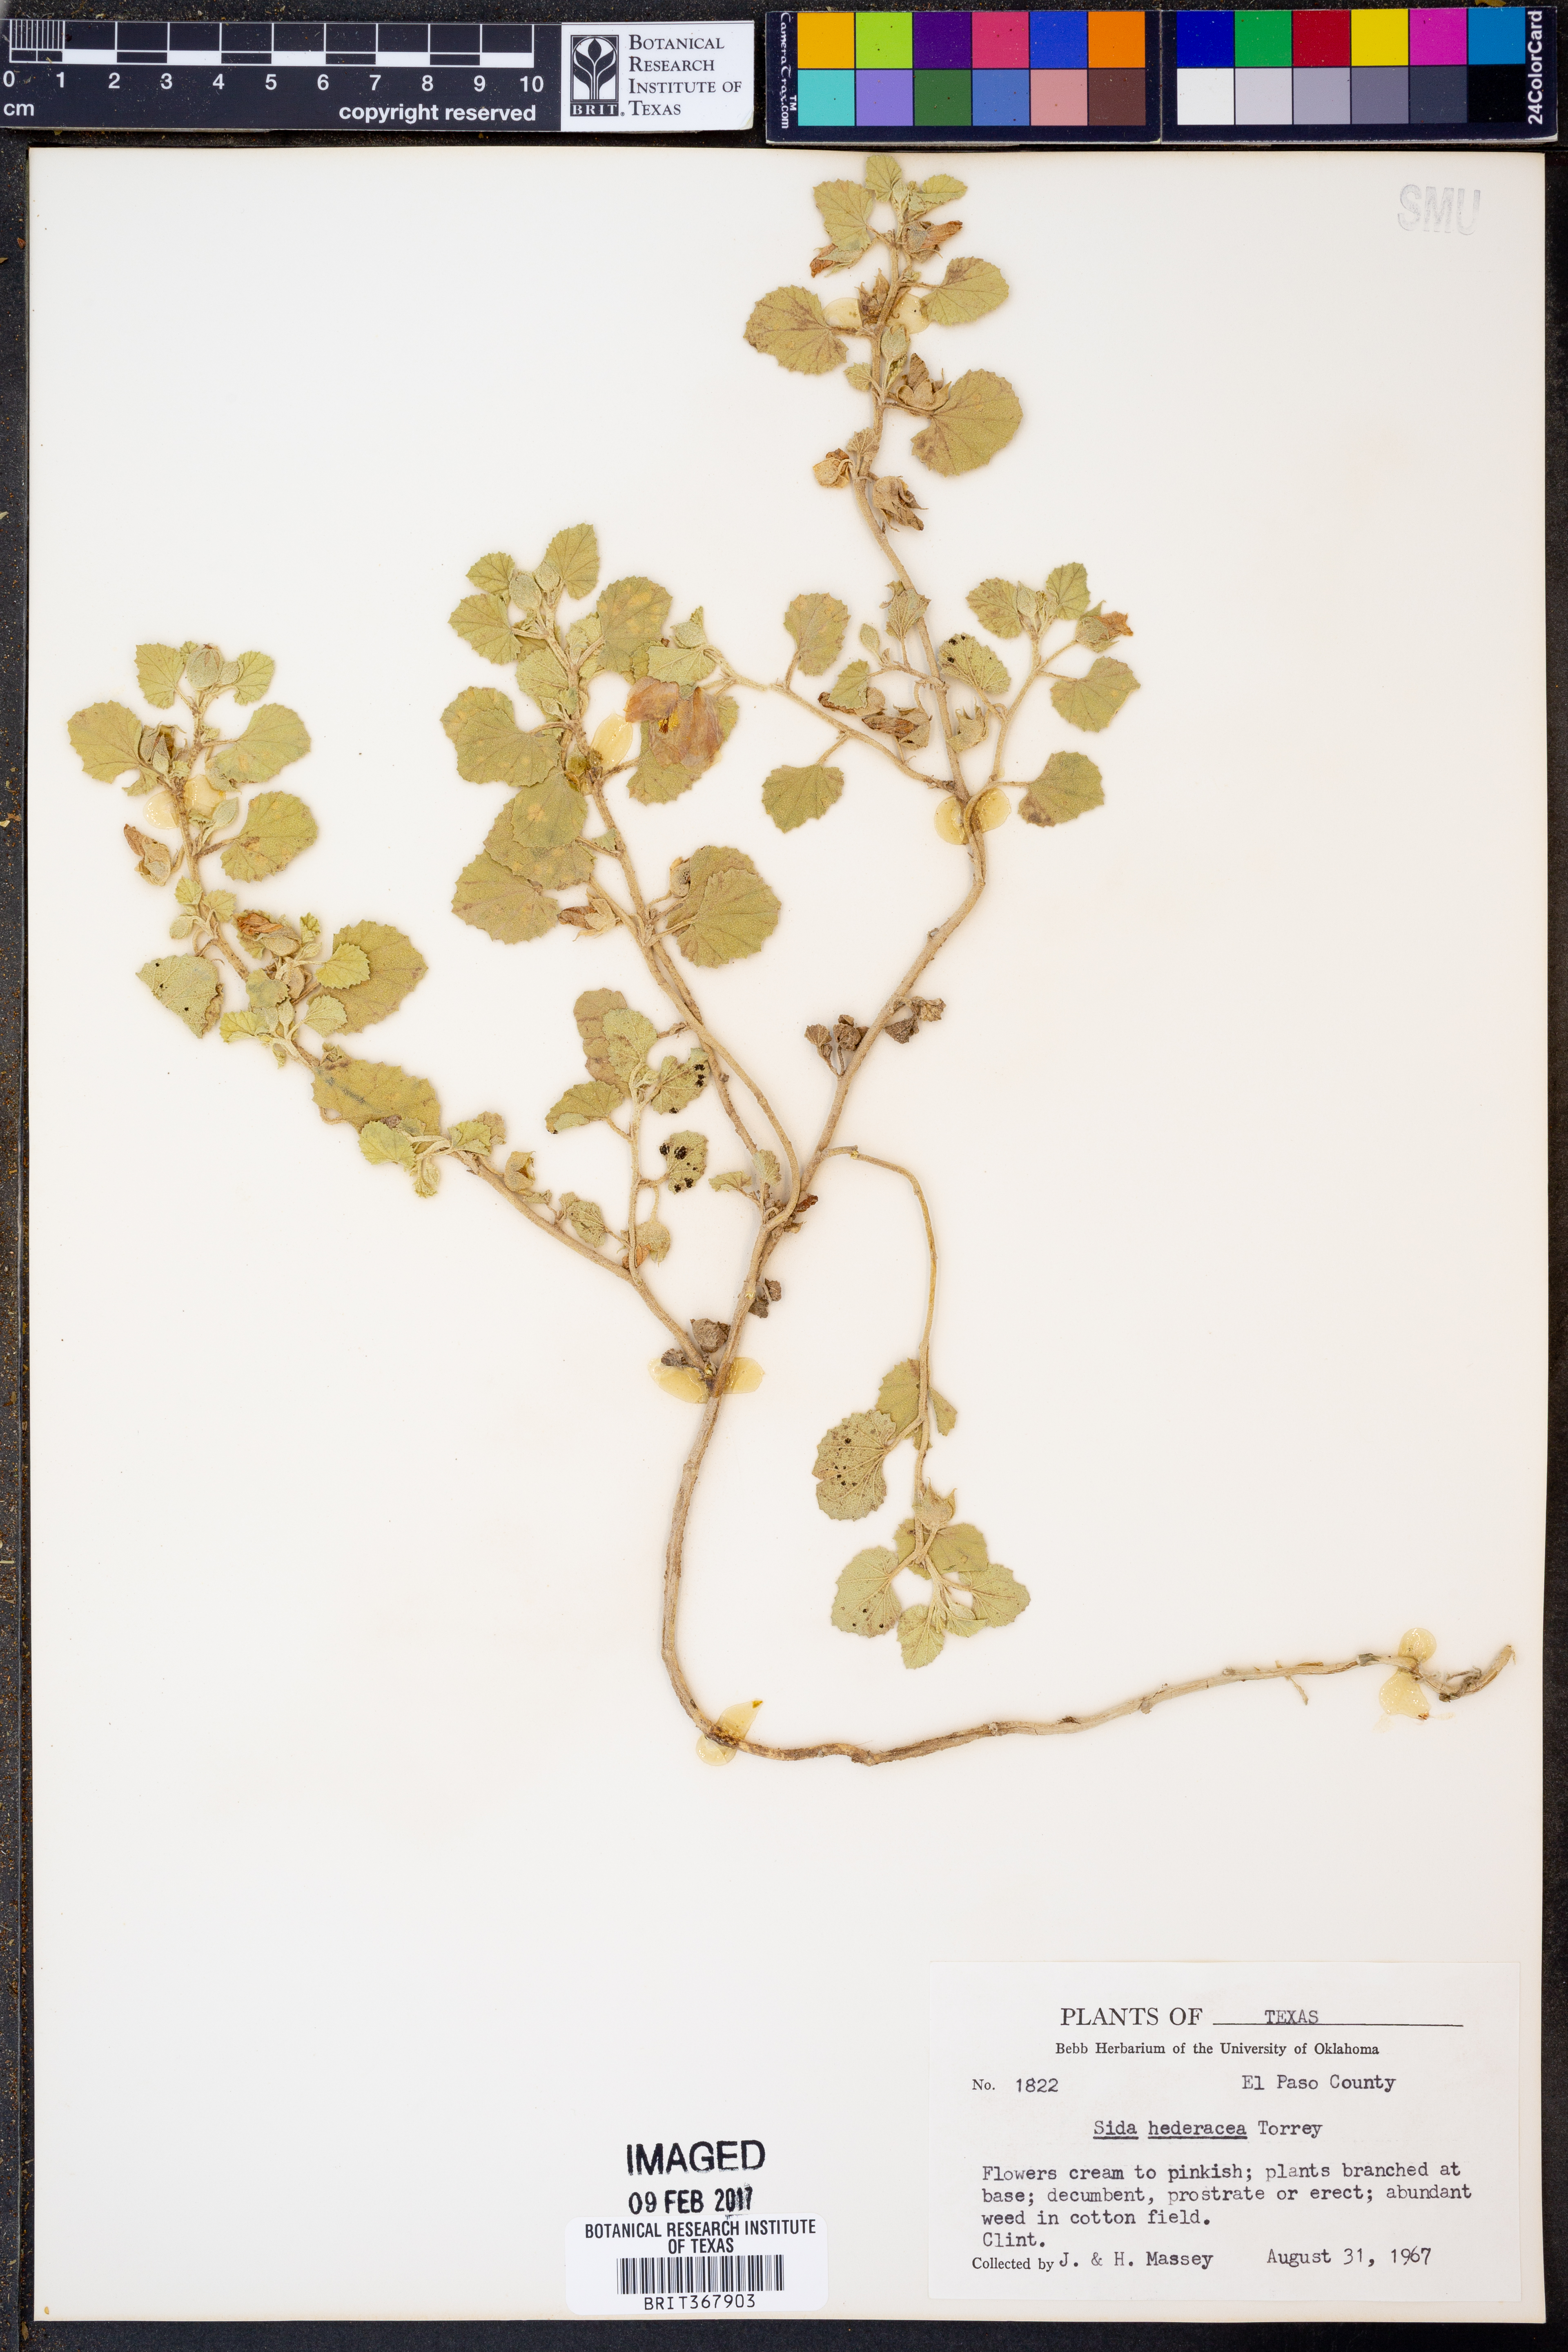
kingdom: Plantae
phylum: Tracheophyta
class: Magnoliopsida
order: Malvales
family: Malvaceae
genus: Malvella
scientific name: Malvella leprosa
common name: Alkali-mallow
